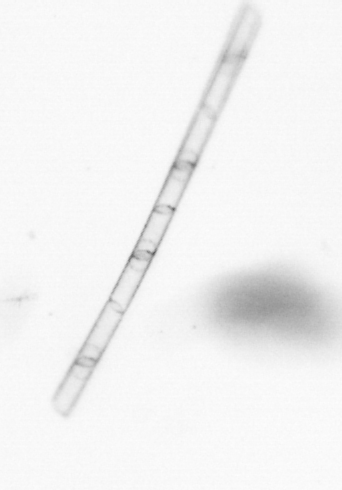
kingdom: Chromista
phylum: Ochrophyta
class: Bacillariophyceae
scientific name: Bacillariophyceae
